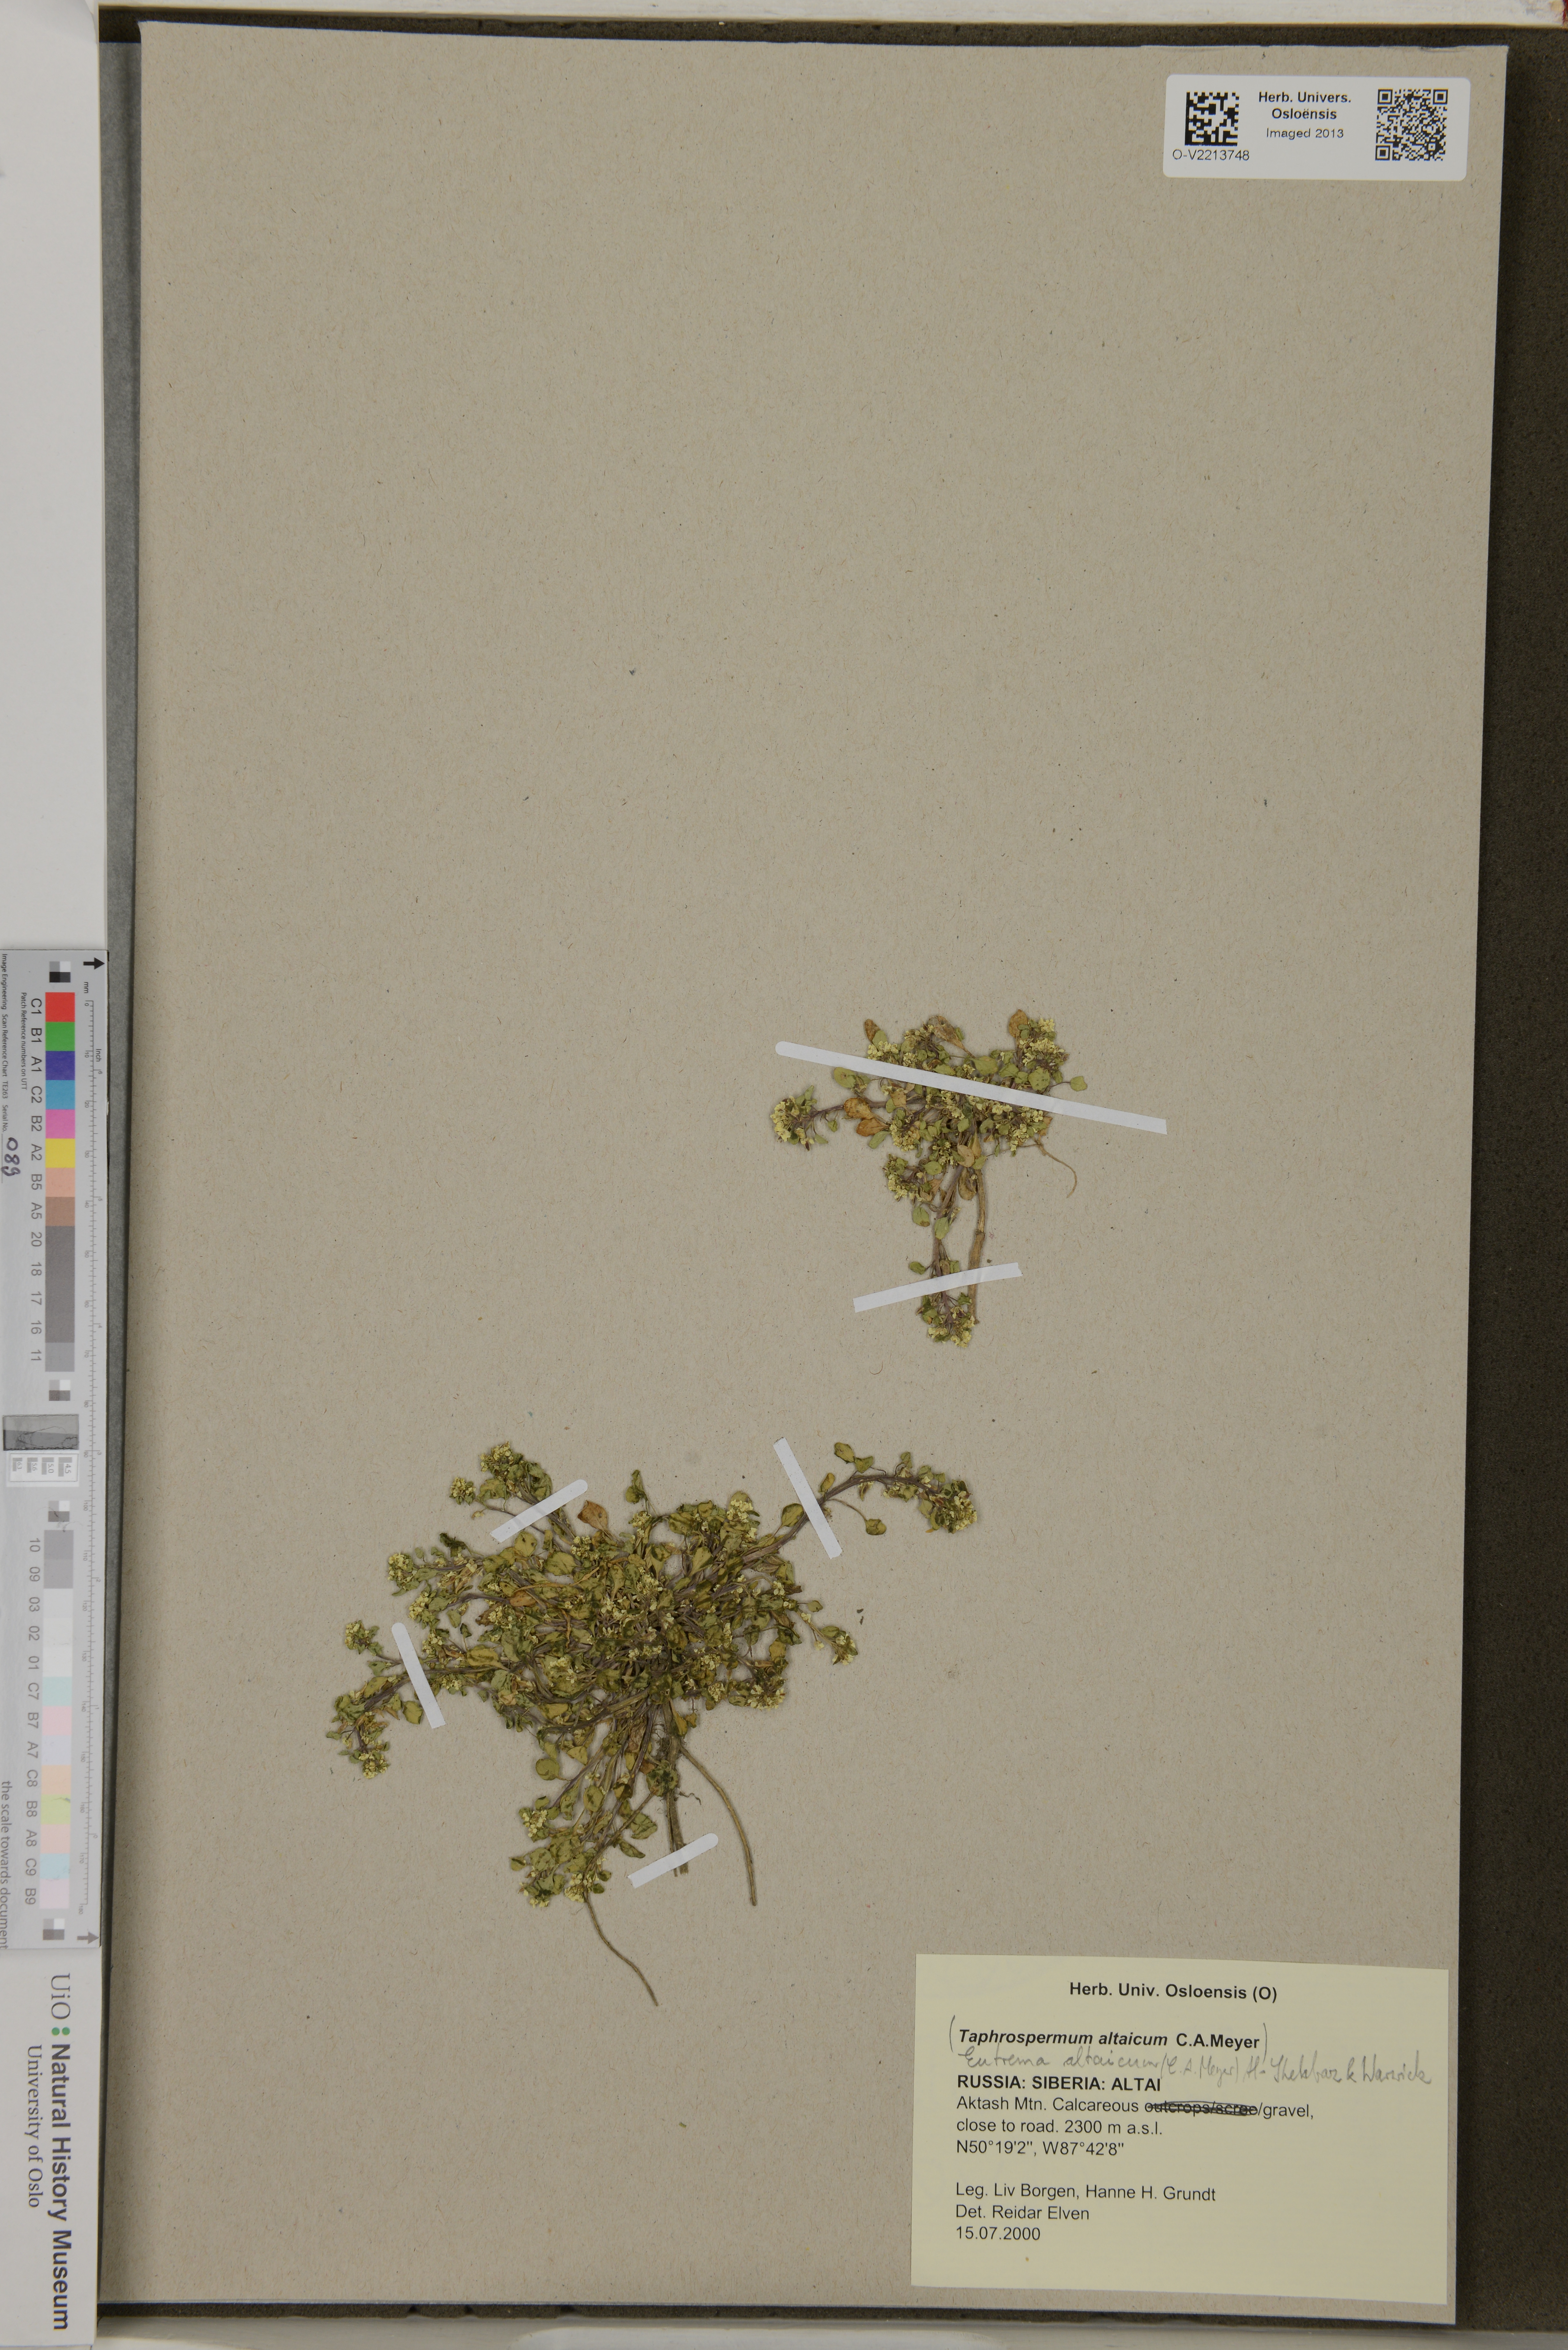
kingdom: Plantae
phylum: Tracheophyta
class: Magnoliopsida
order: Brassicales
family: Brassicaceae
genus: Eutrema
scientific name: Eutrema altaicum
